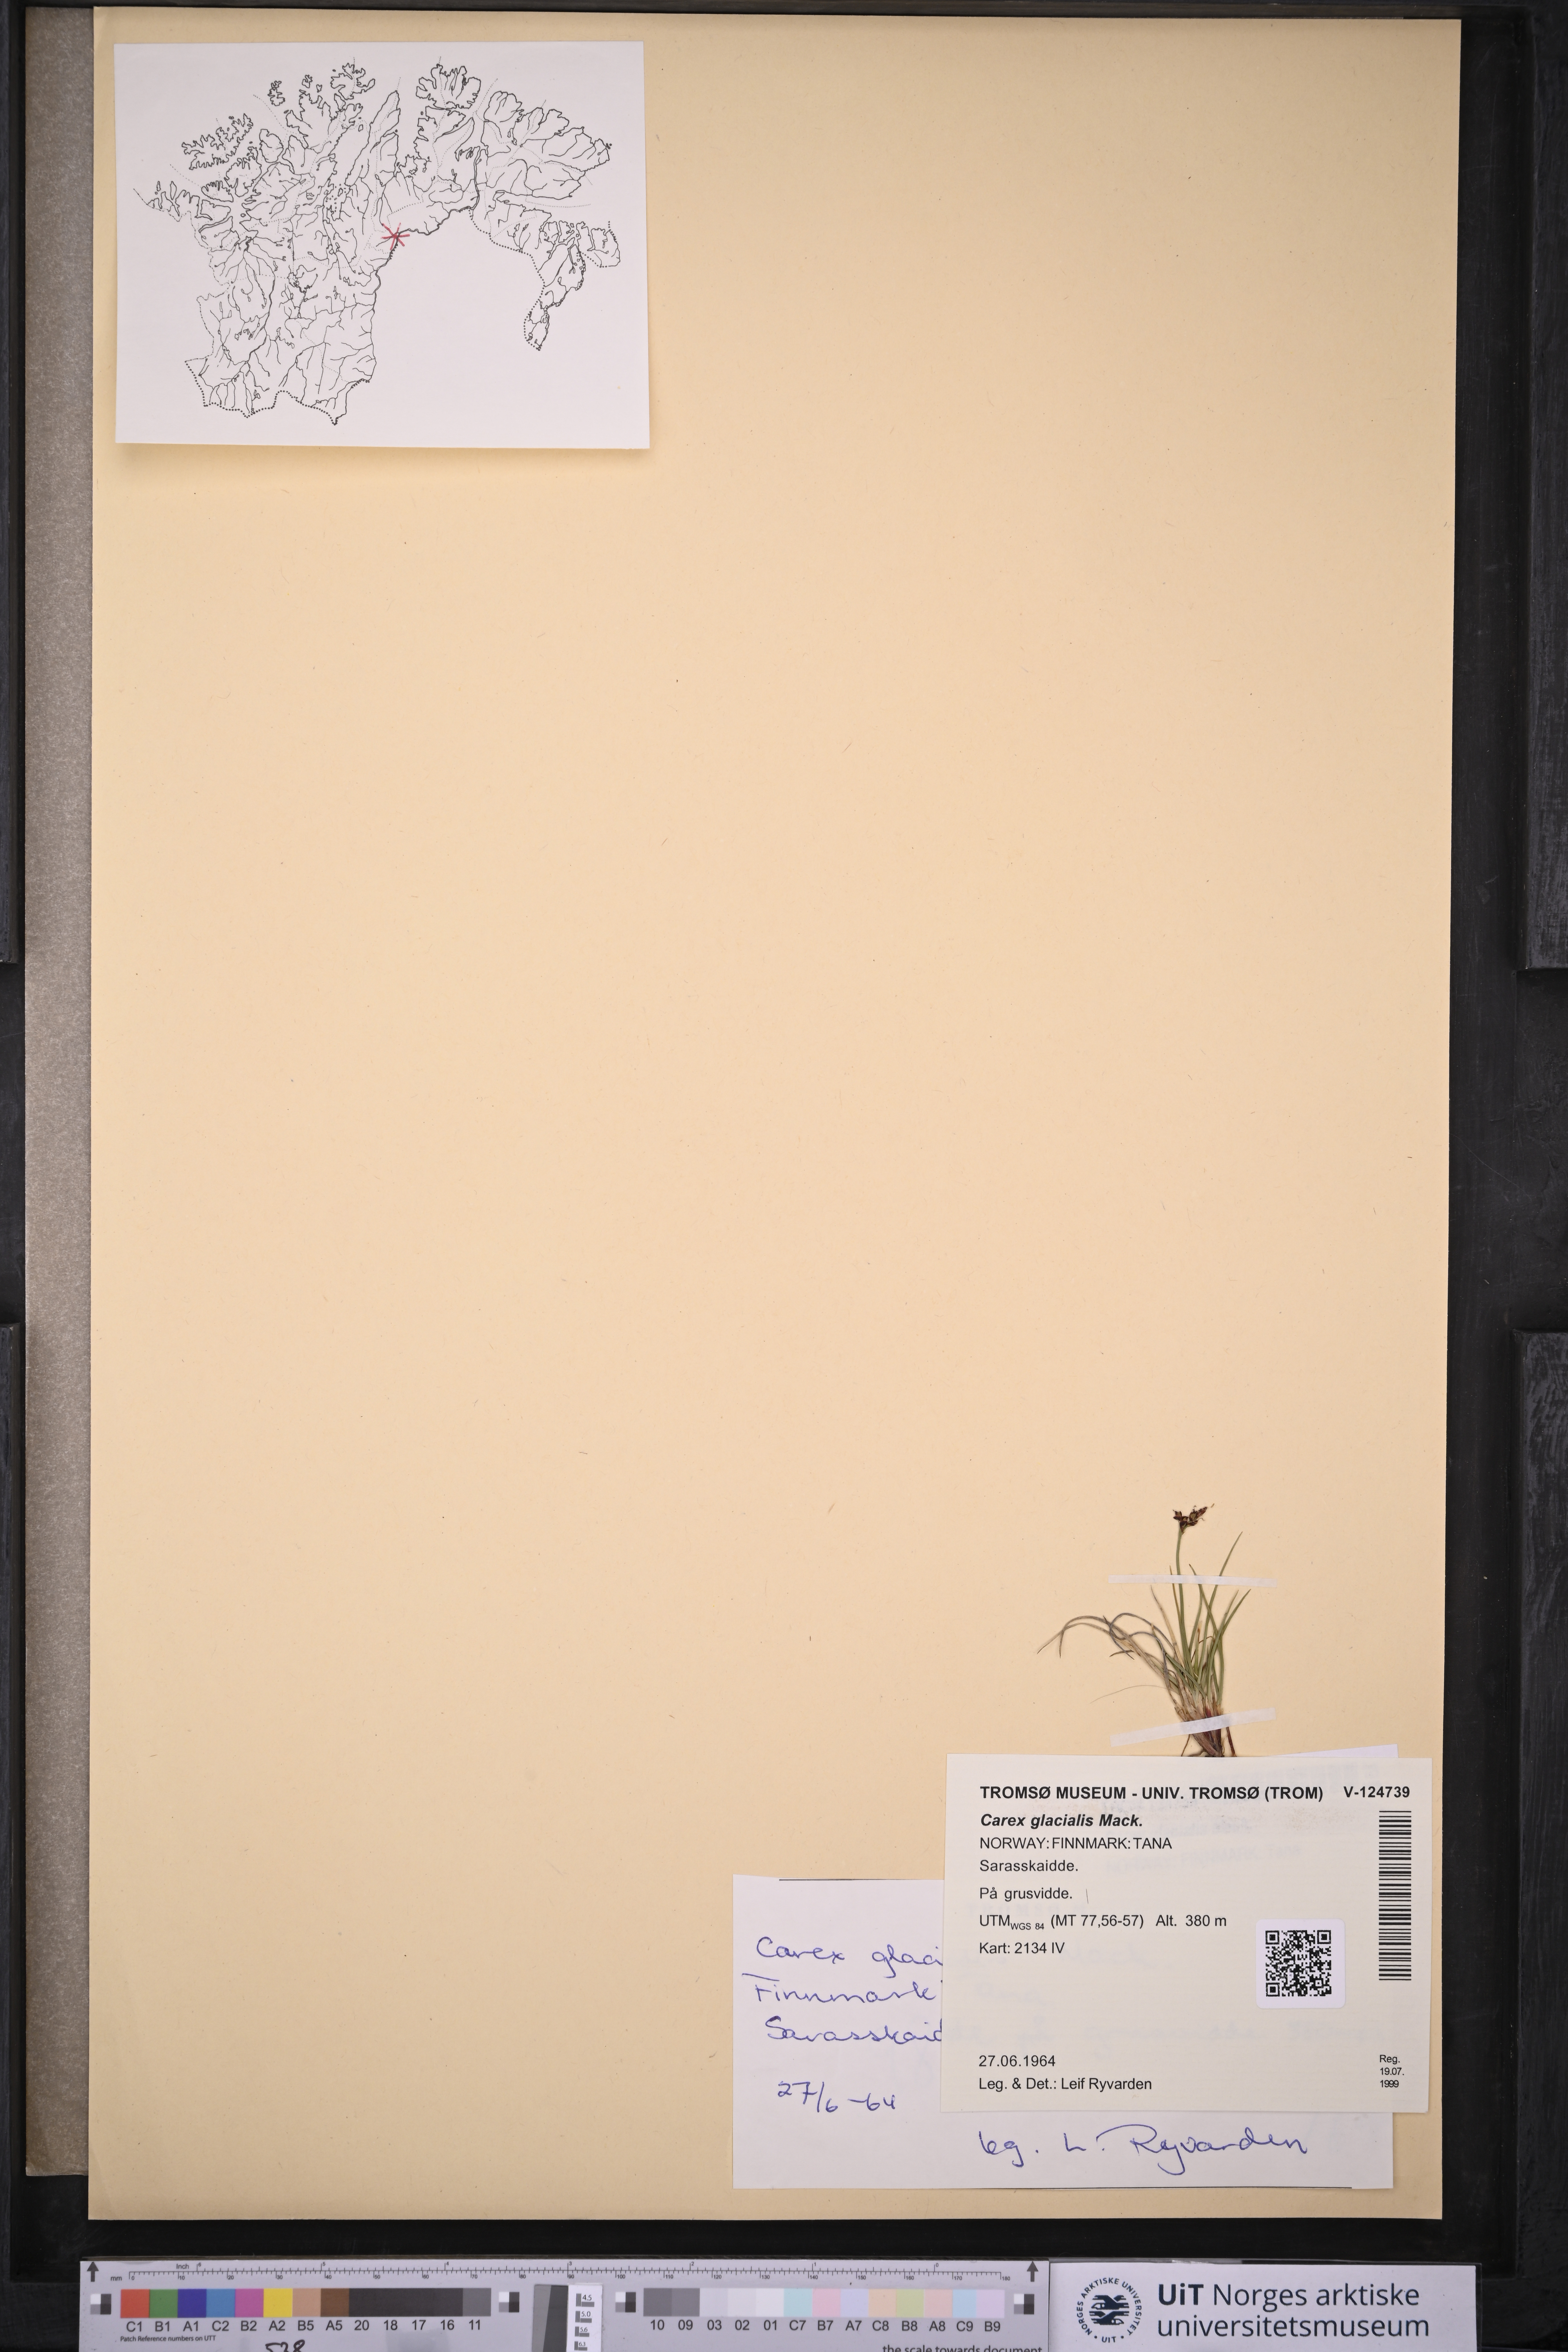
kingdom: Plantae
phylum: Tracheophyta
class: Liliopsida
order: Poales
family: Cyperaceae
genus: Carex
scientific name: Carex glacialis
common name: Newfoundland sedge
